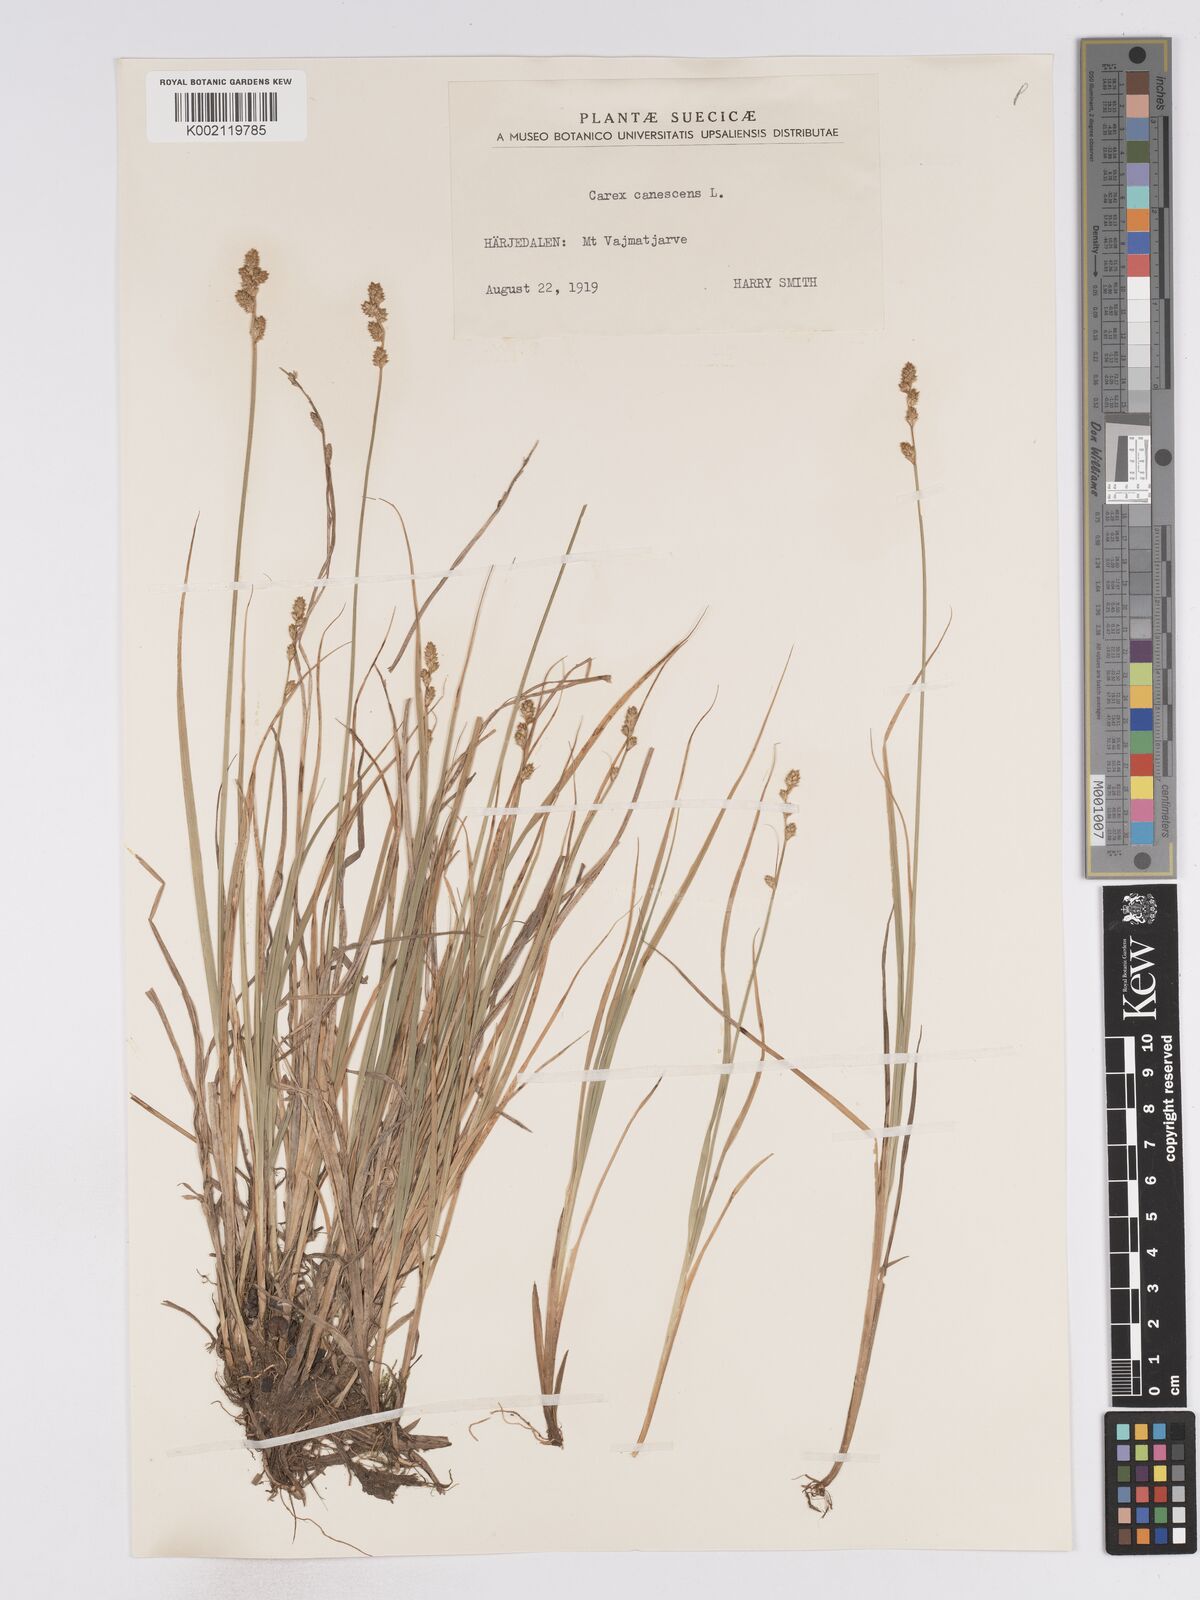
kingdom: Plantae
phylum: Tracheophyta
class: Liliopsida
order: Poales
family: Cyperaceae
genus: Carex
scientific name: Carex curta
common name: White sedge
